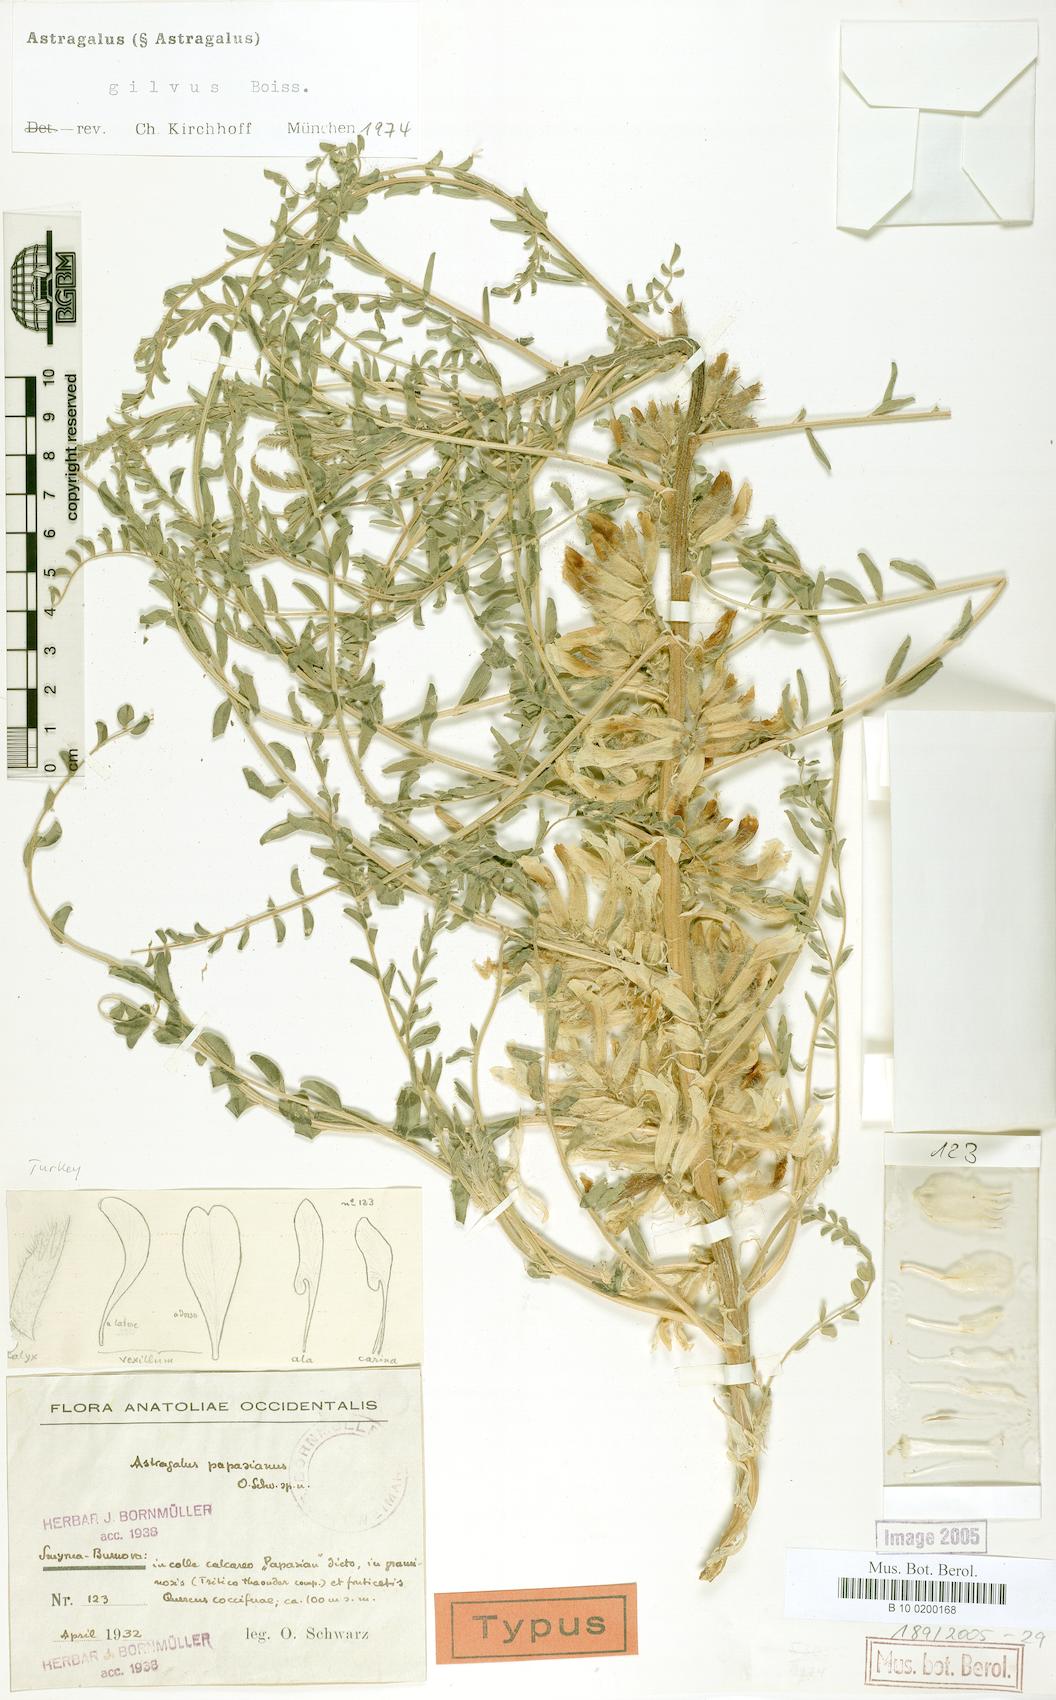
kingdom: Plantae
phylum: Tracheophyta
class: Magnoliopsida
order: Fabales
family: Fabaceae
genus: Astragalus
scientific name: Astragalus gilvus
